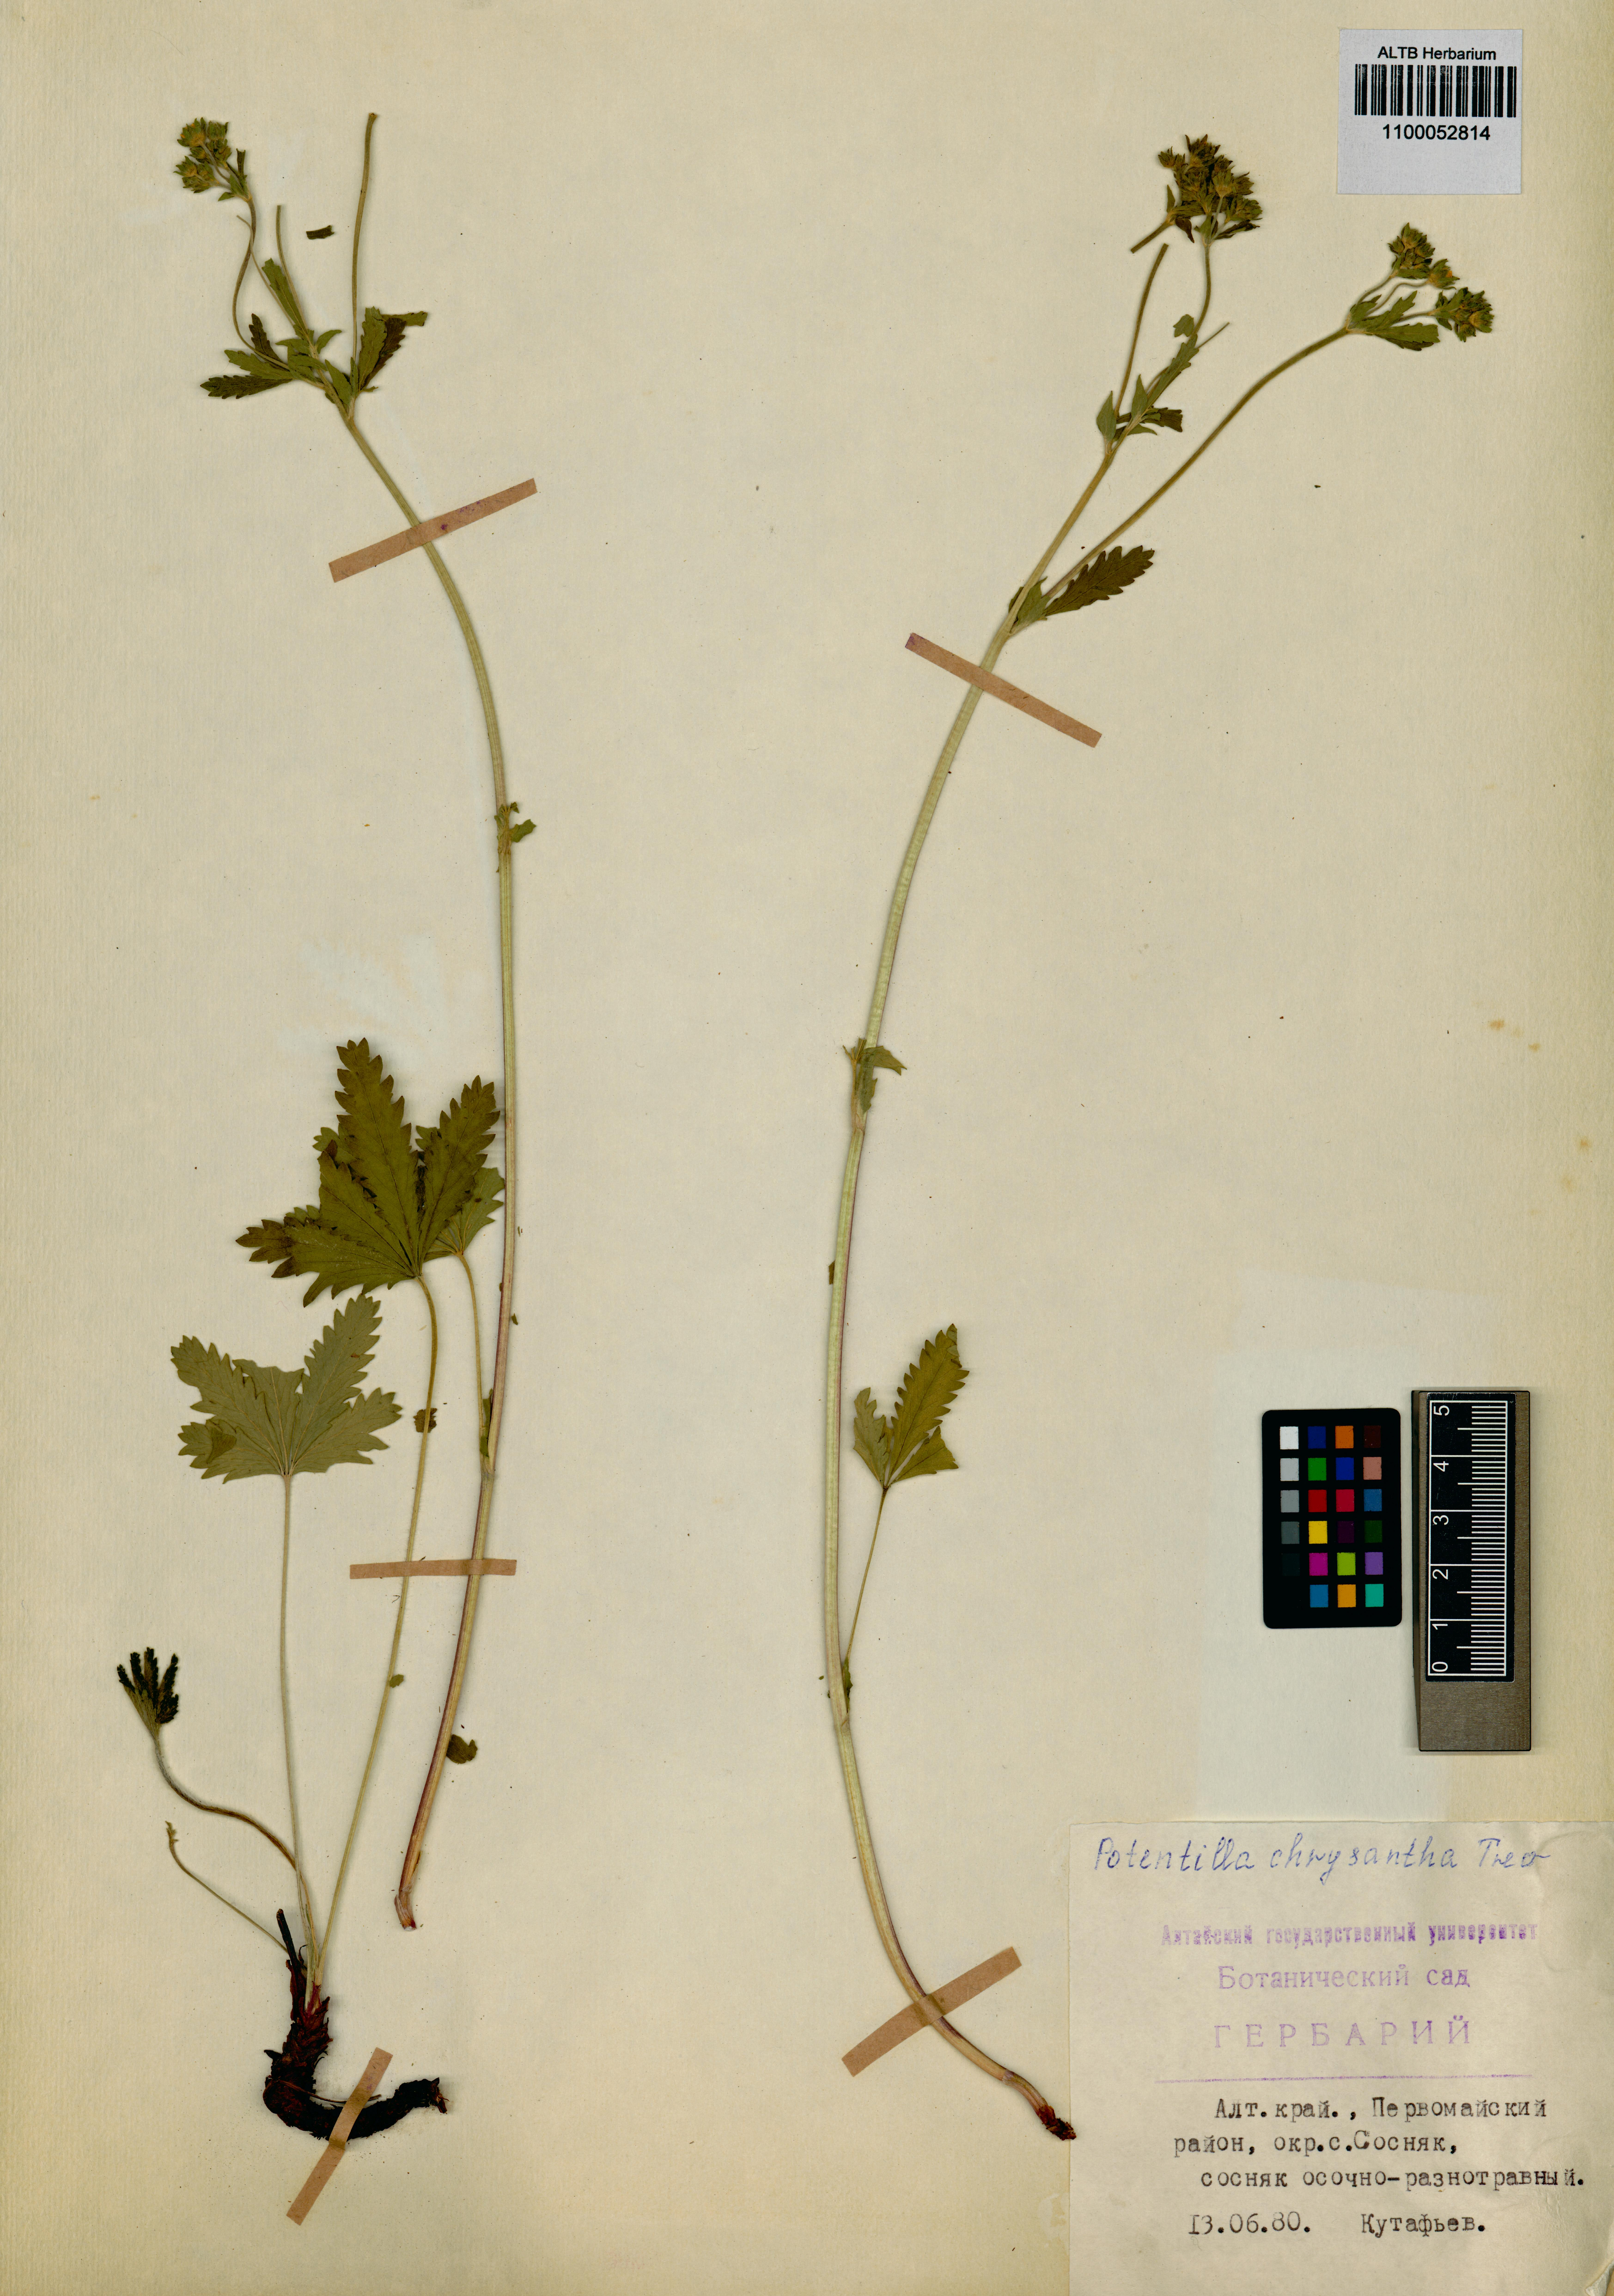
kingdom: Plantae
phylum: Tracheophyta
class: Magnoliopsida
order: Rosales
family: Rosaceae
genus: Potentilla
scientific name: Potentilla chrysantha
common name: Thuringian cinquefoil
